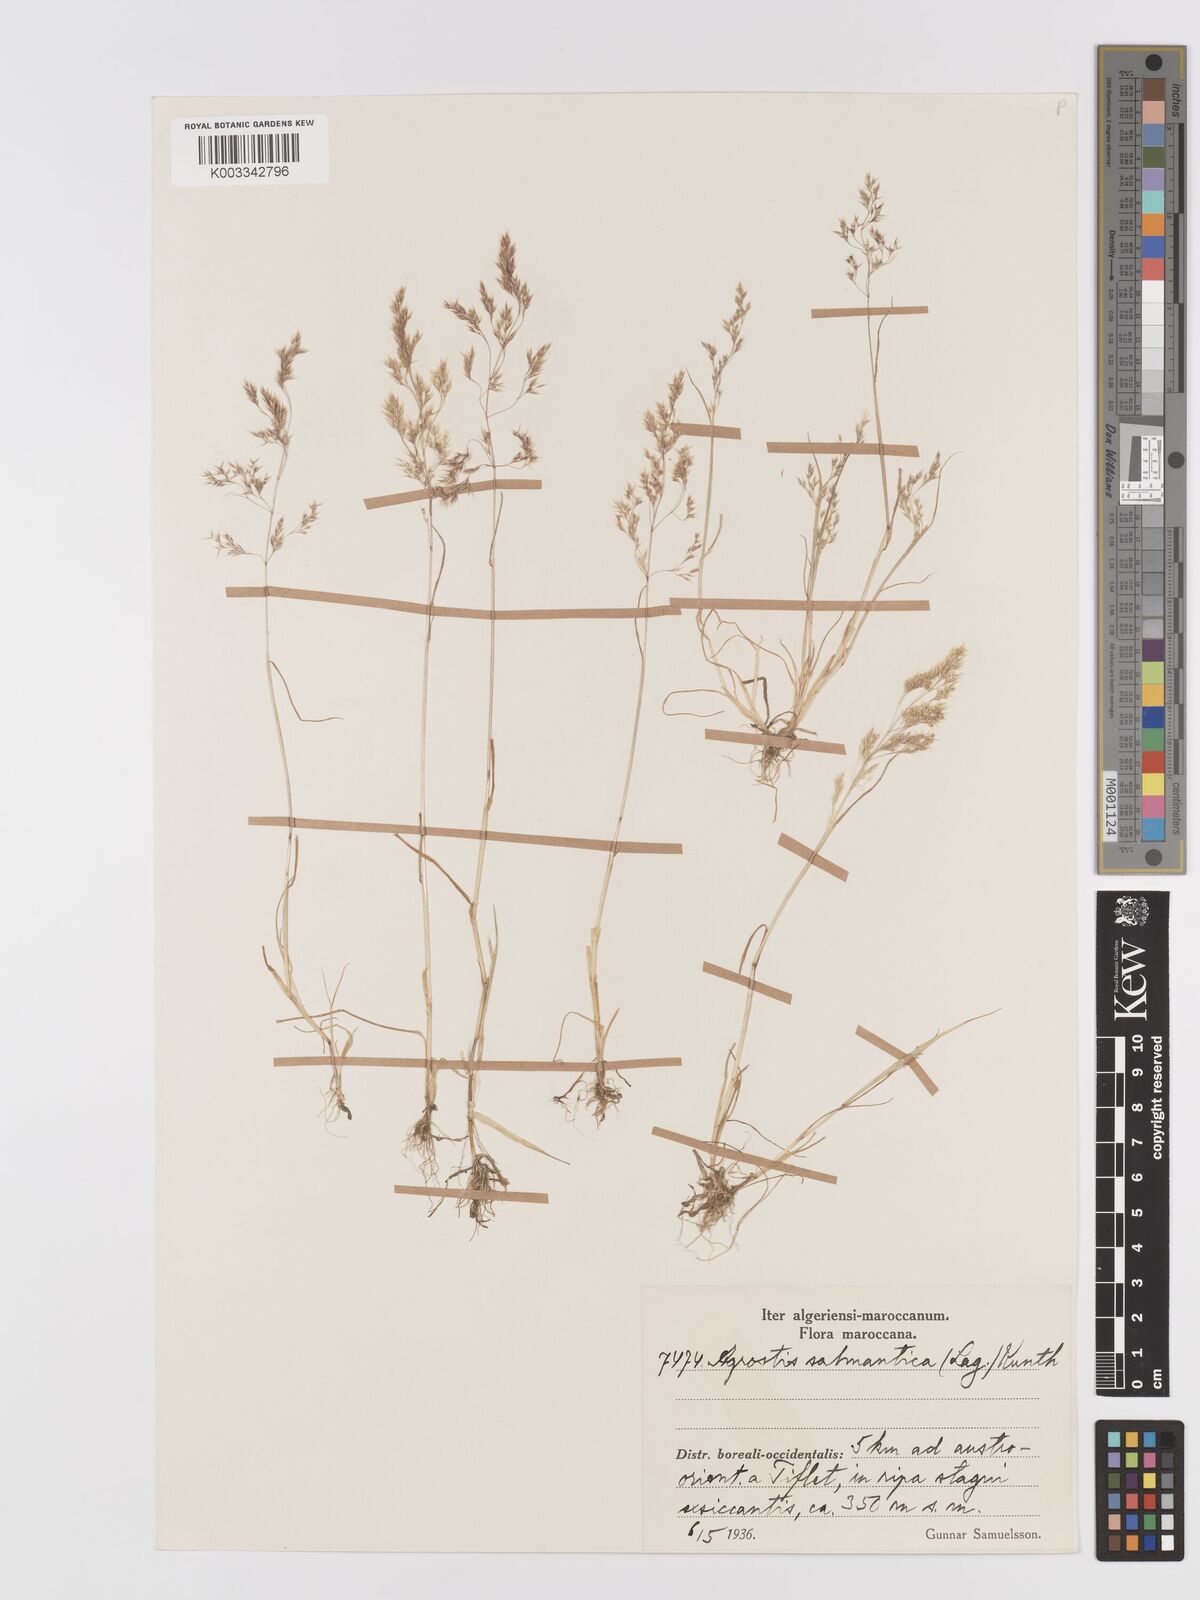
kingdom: Plantae
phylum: Tracheophyta
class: Liliopsida
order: Poales
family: Poaceae
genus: Agrostis
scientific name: Agrostis pourretii
